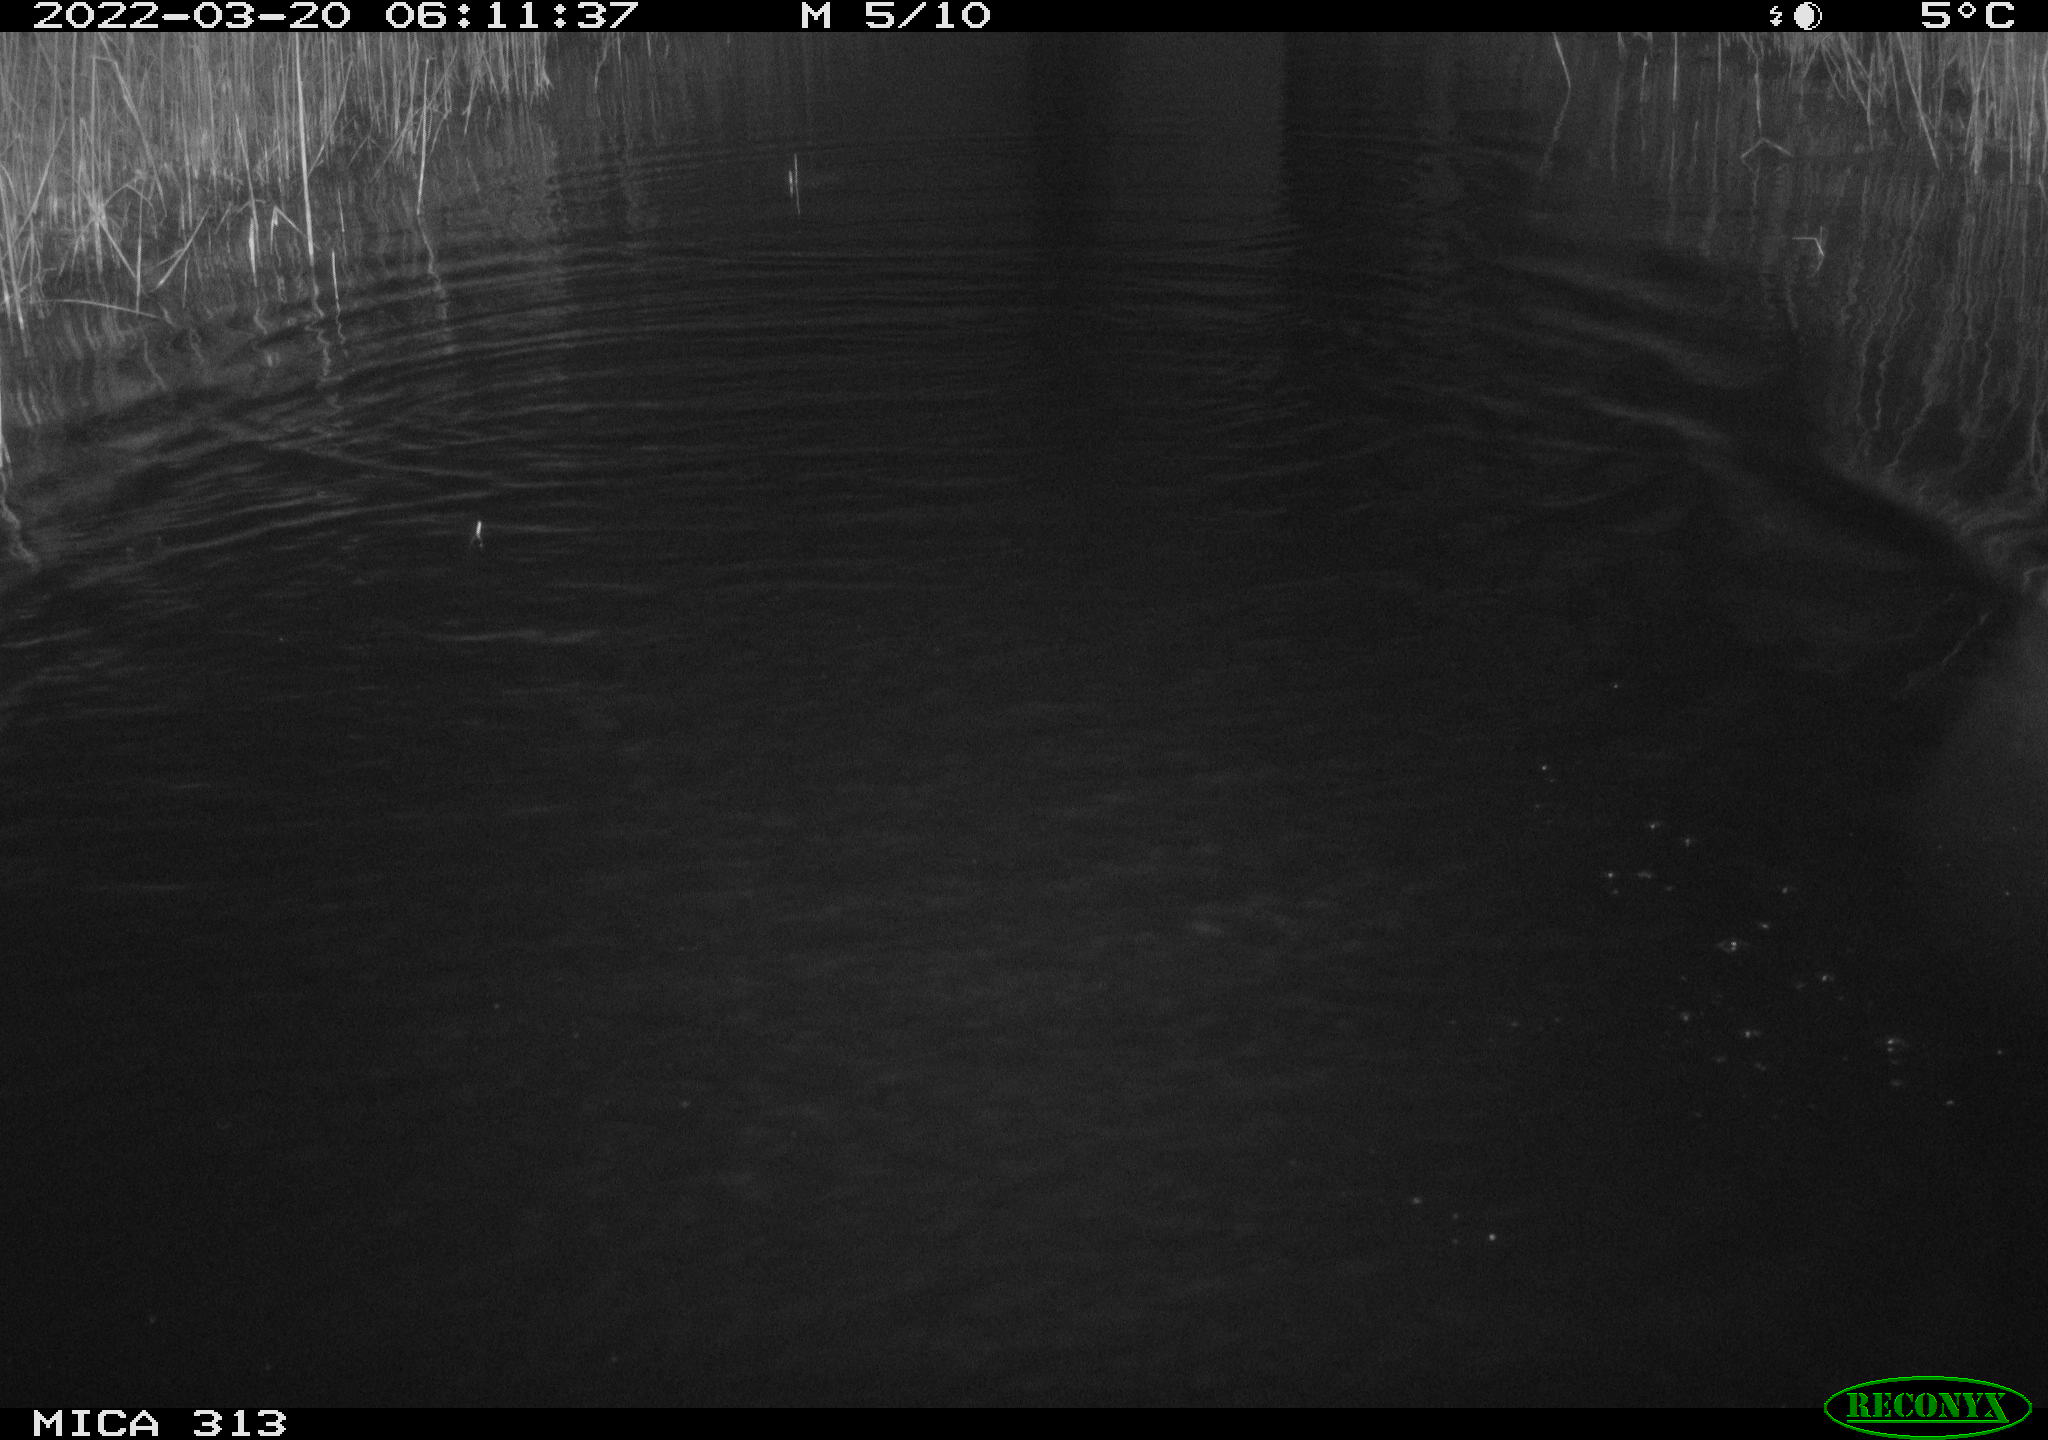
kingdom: Animalia
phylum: Chordata
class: Aves
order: Gruiformes
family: Rallidae
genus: Gallinula
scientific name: Gallinula chloropus
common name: Common moorhen
